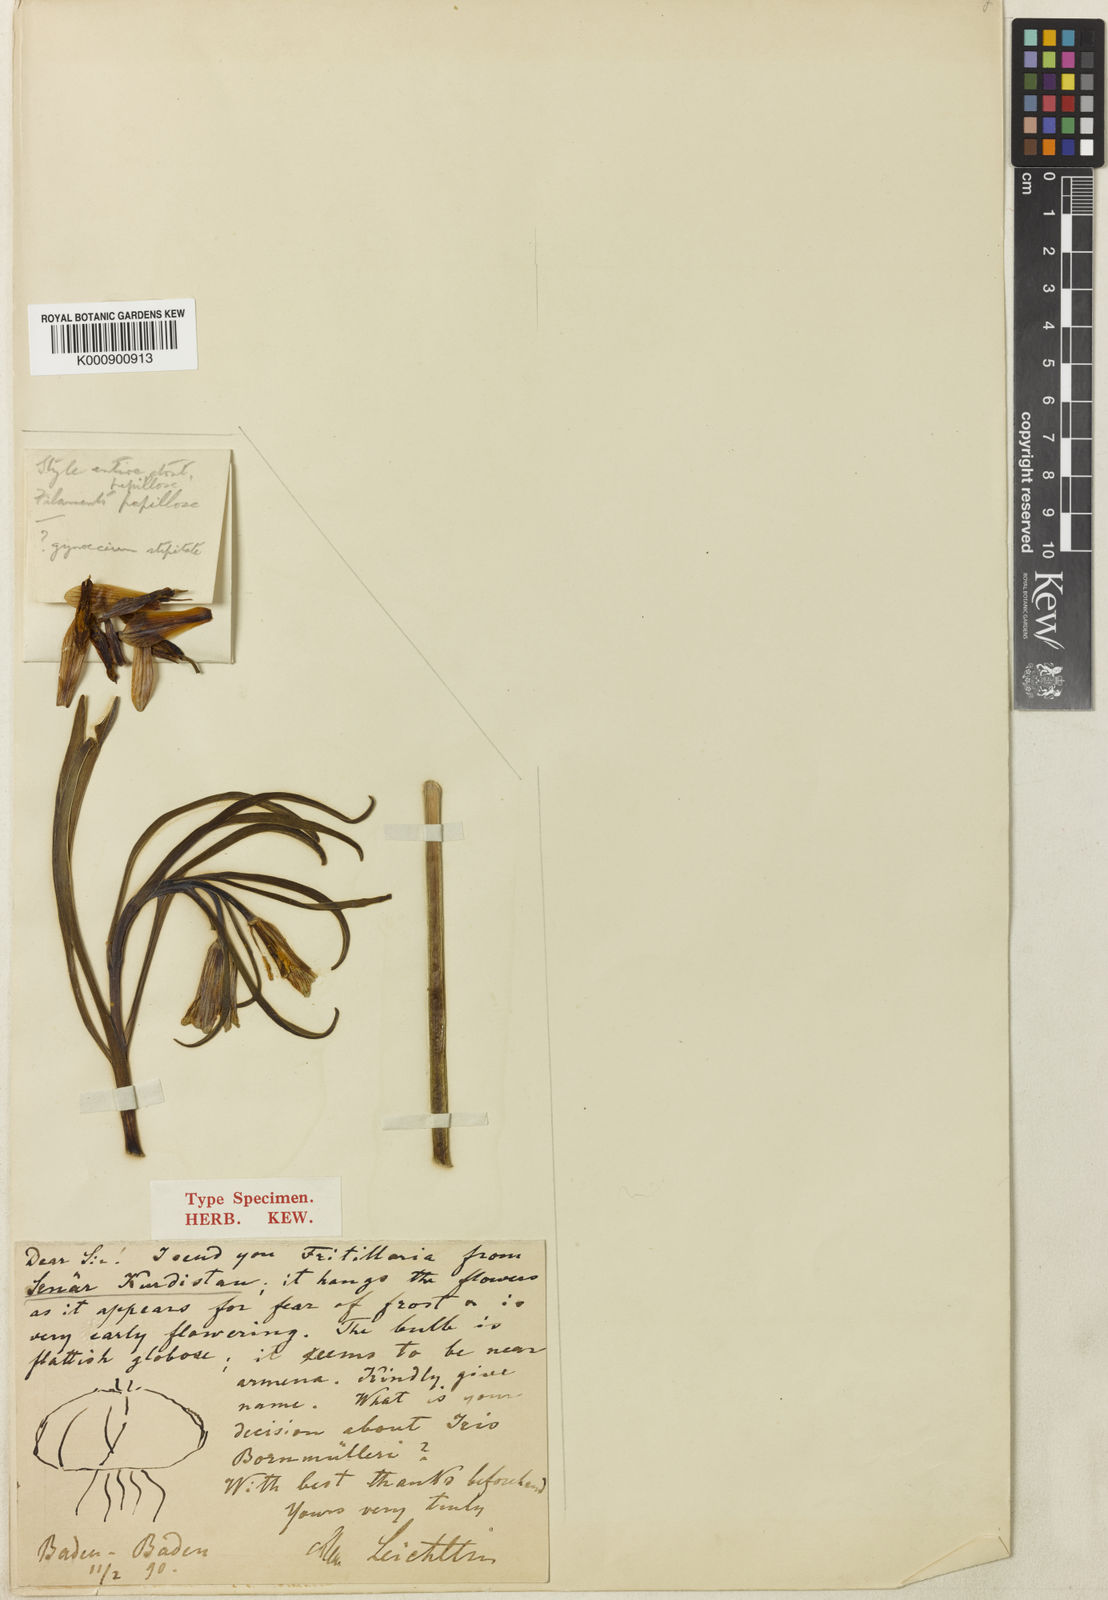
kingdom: Plantae
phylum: Tracheophyta
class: Liliopsida
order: Liliales
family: Liliaceae
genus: Fritillaria
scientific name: Fritillaria bucharica
